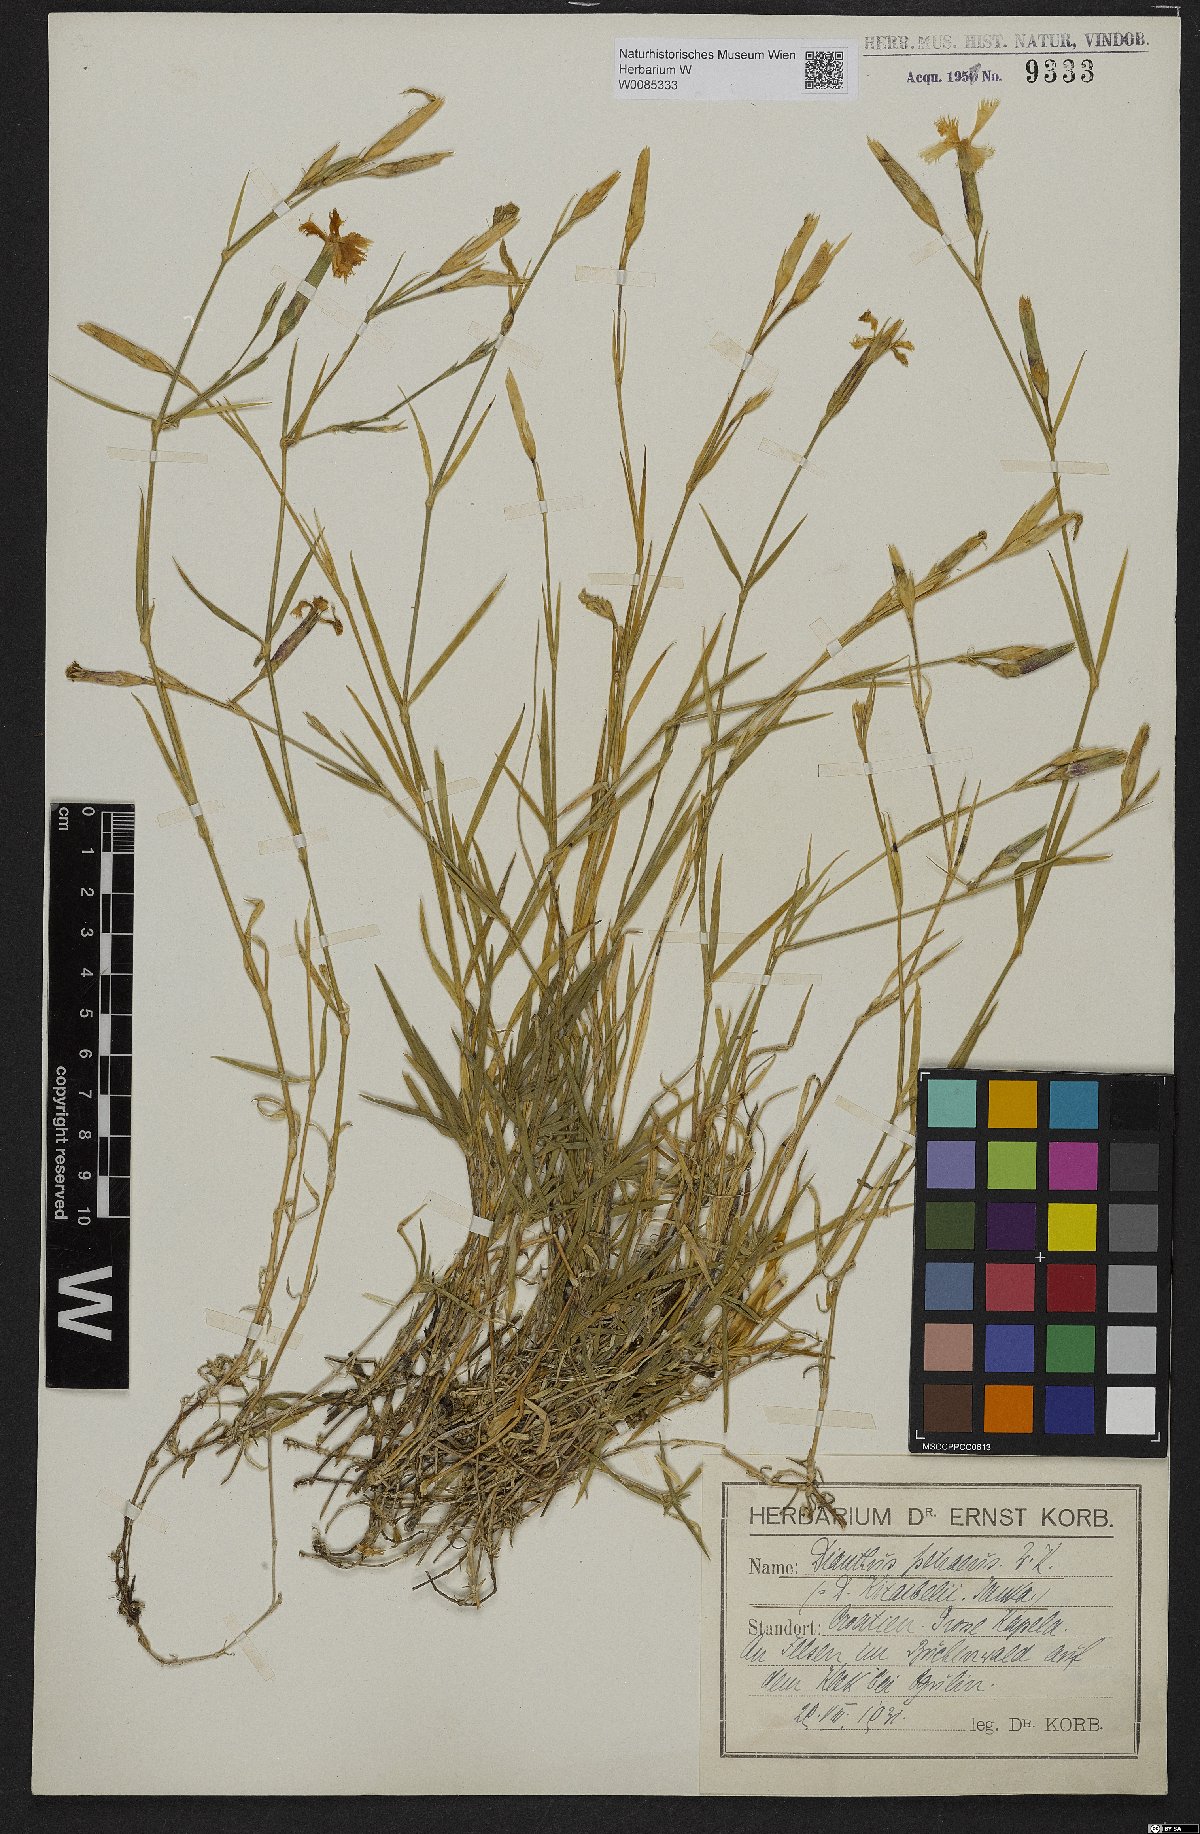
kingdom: Plantae
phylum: Tracheophyta
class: Magnoliopsida
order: Caryophyllales
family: Caryophyllaceae
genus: Dianthus
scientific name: Dianthus petraeus
